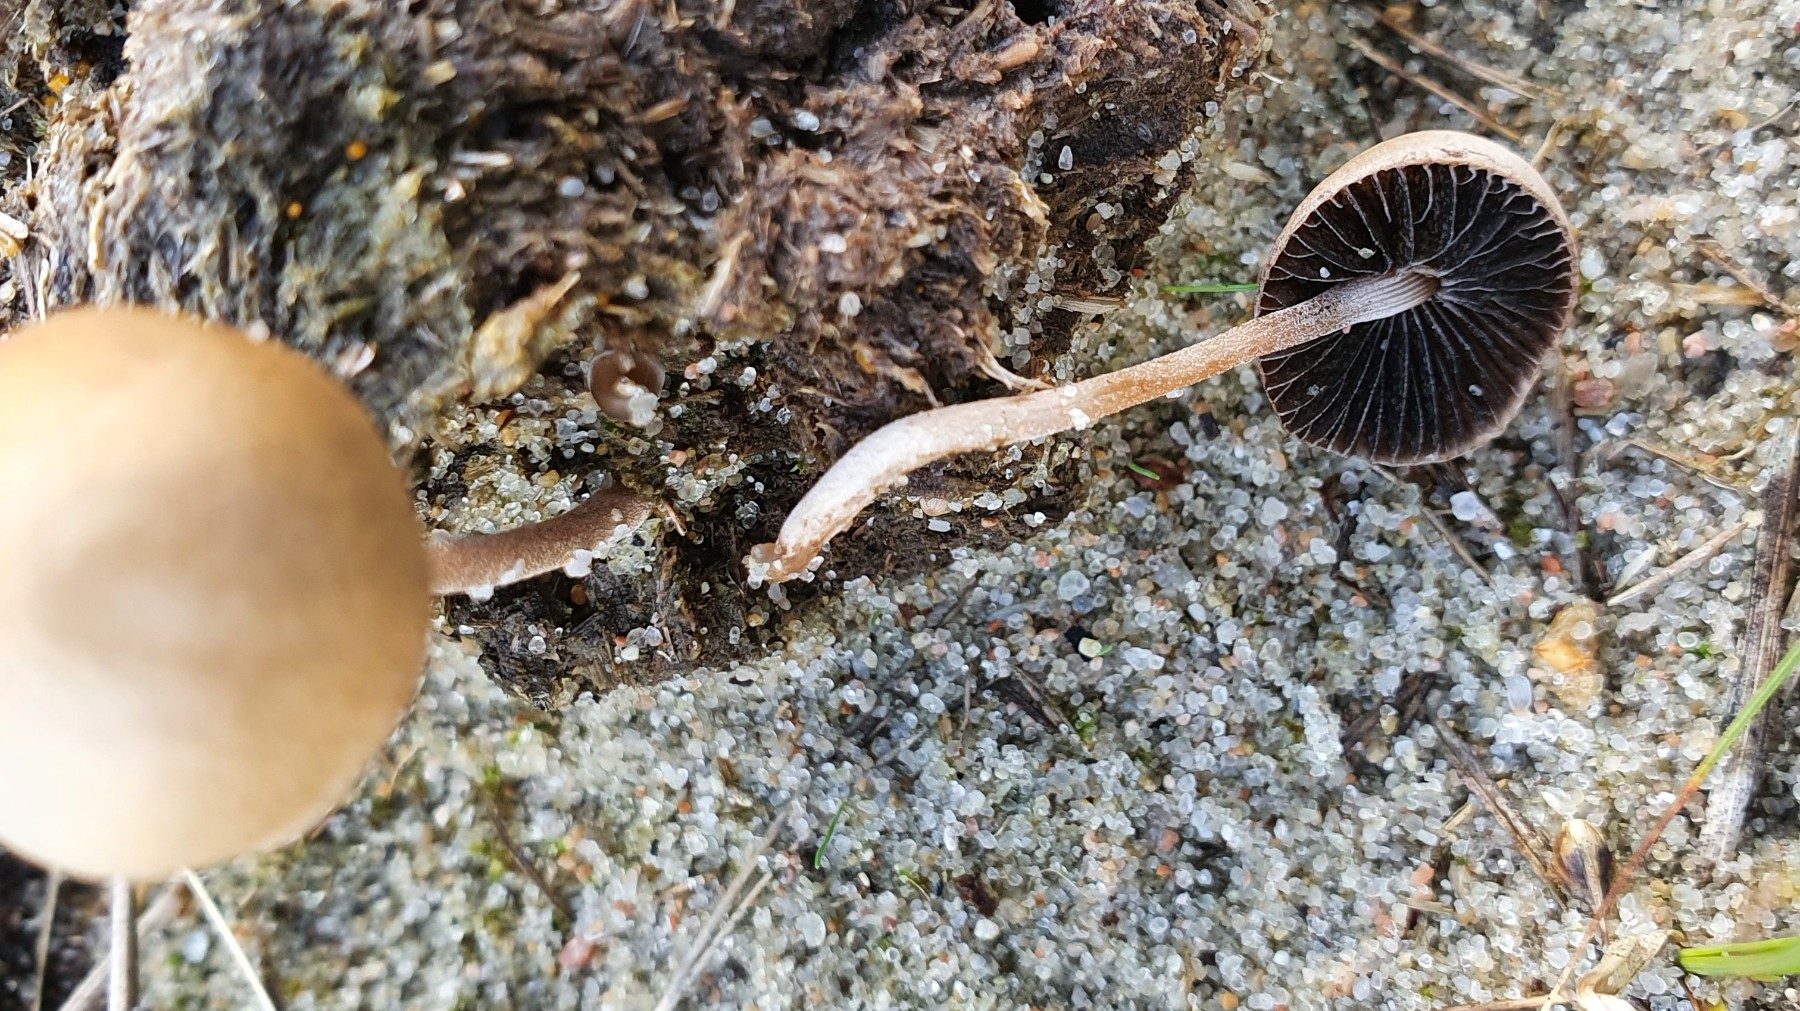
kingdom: Fungi
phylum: Basidiomycota
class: Agaricomycetes
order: Agaricales
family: Strophariaceae
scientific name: Strophariaceae
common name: bredbladfamilien
